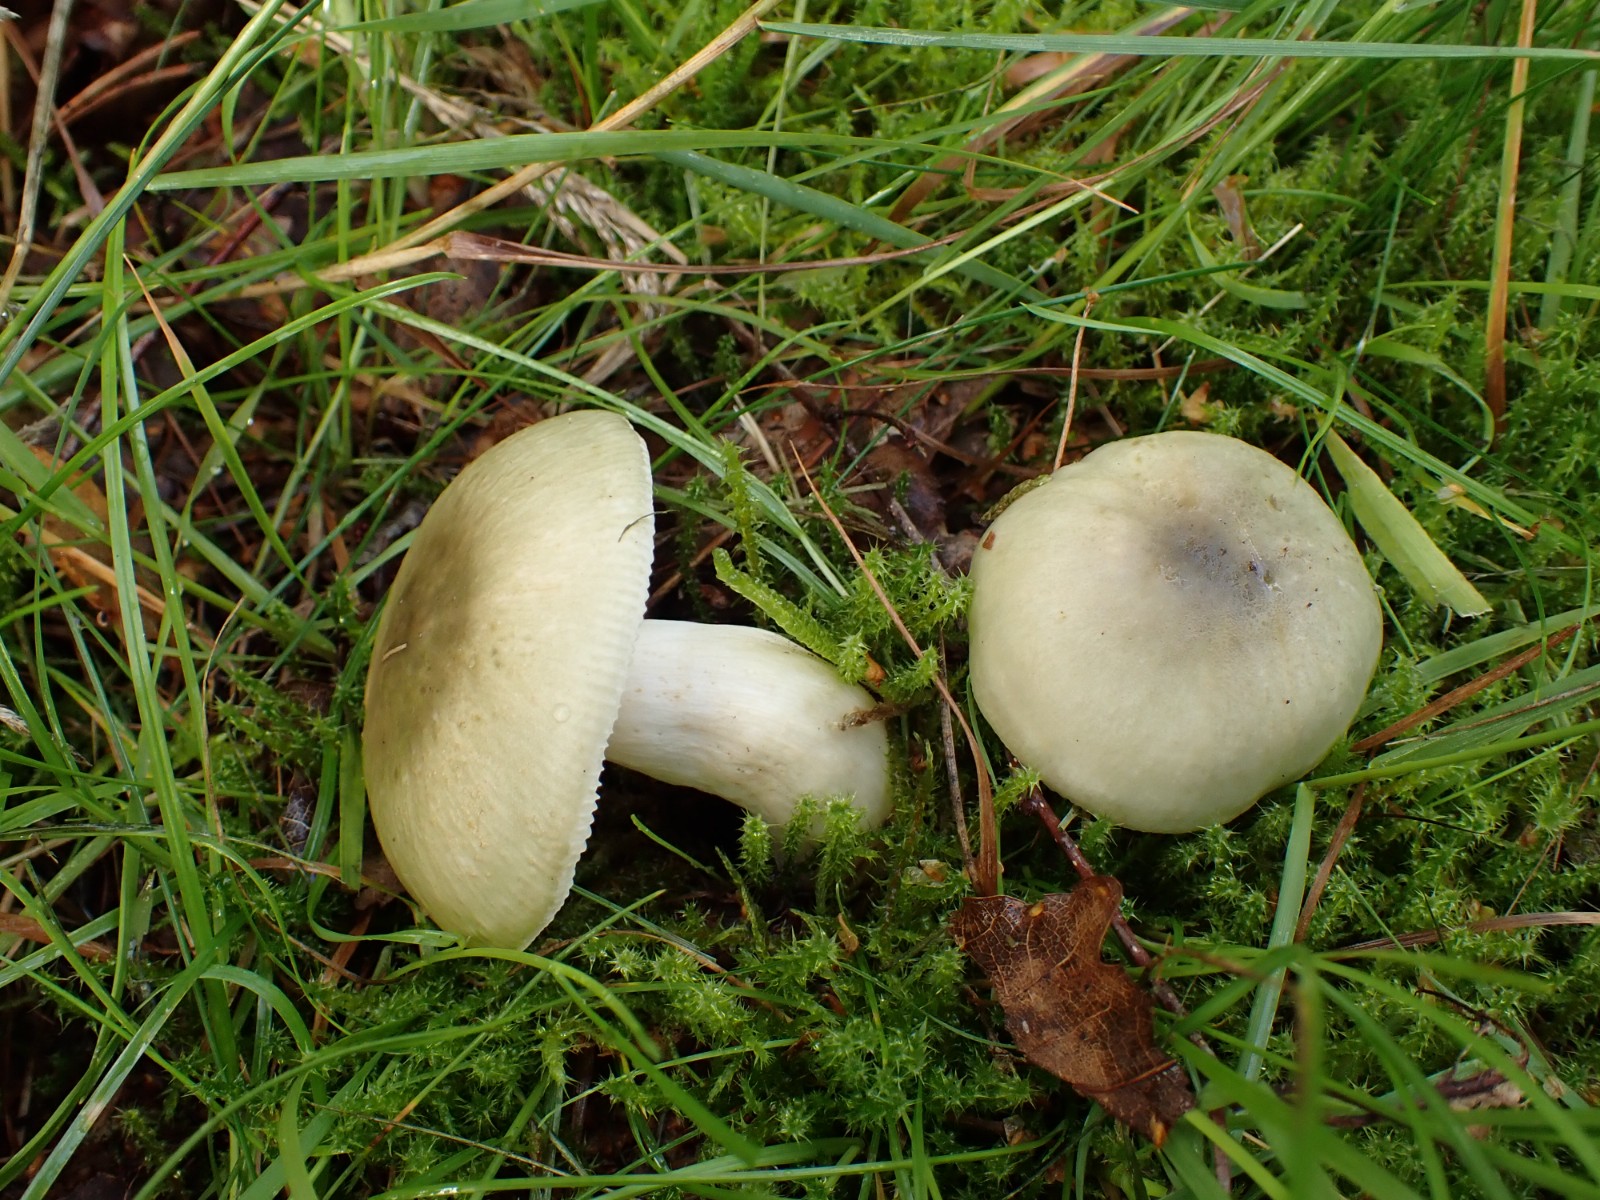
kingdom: Fungi
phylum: Basidiomycota
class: Agaricomycetes
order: Russulales
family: Russulaceae
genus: Russula
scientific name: Russula aeruginea
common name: græsgrøn skørhat
